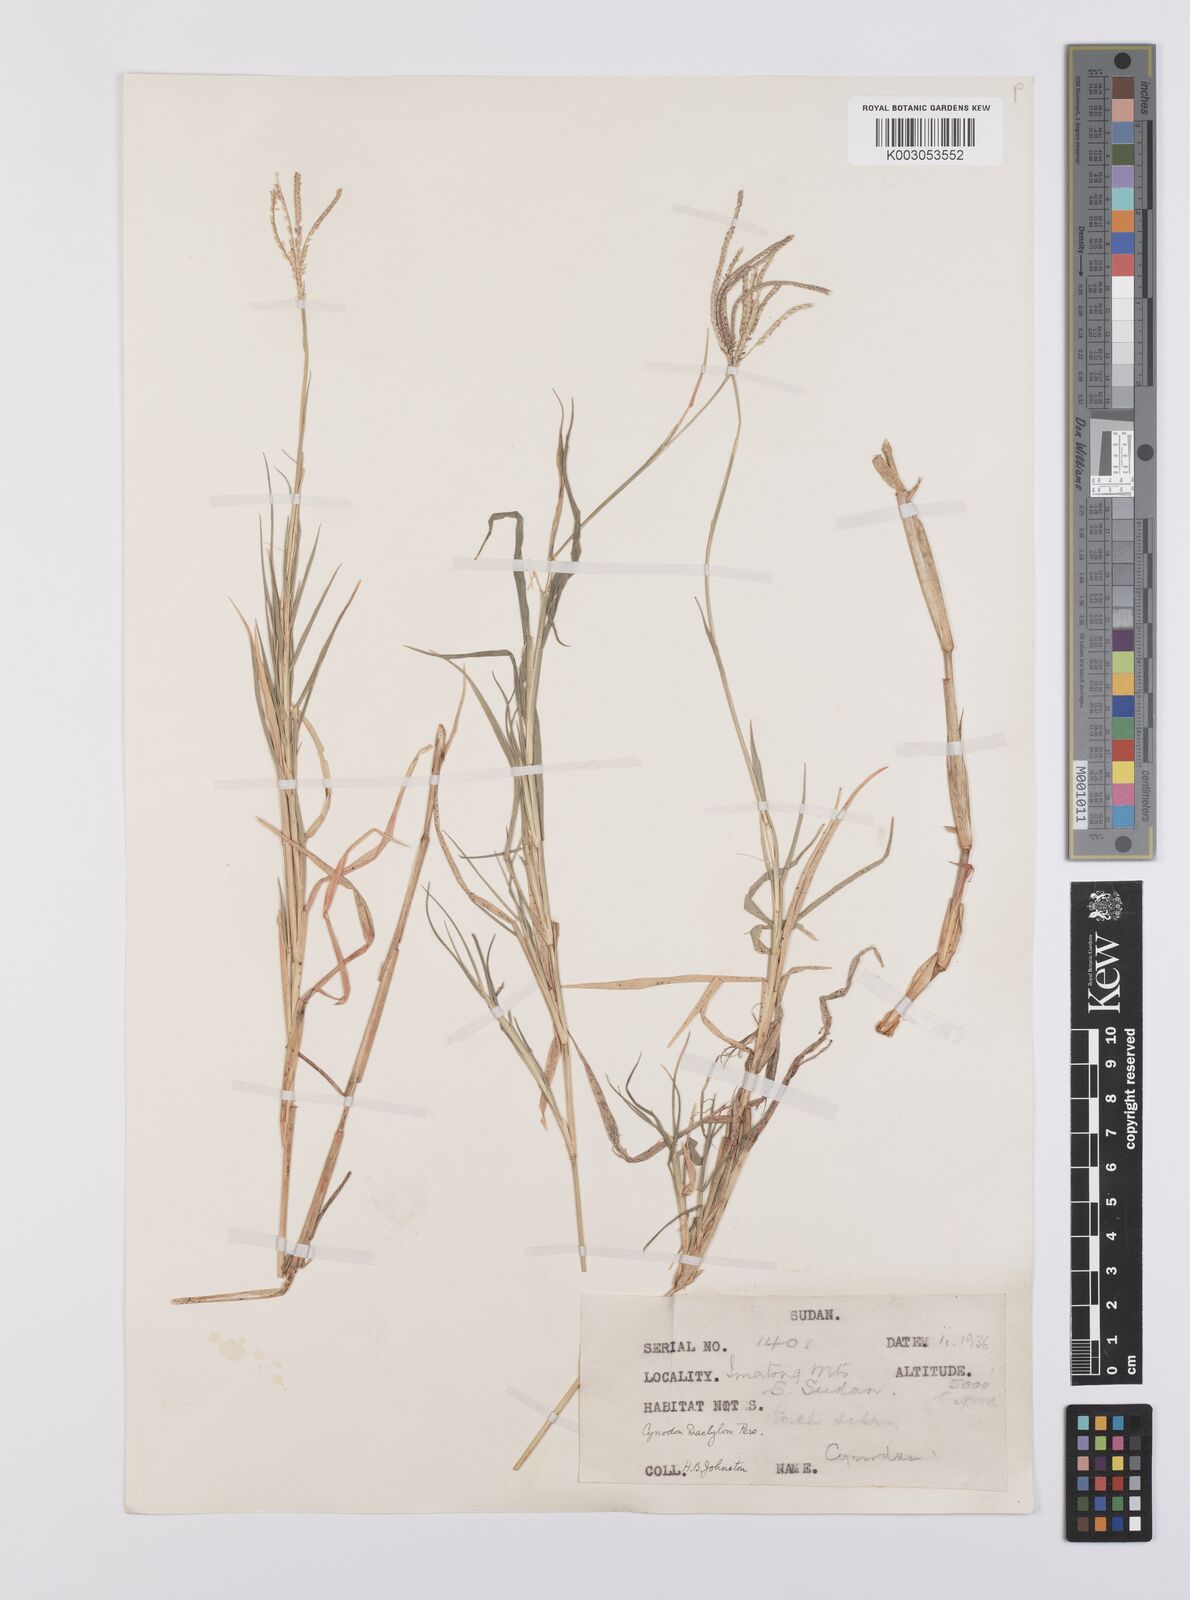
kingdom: Plantae
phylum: Tracheophyta
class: Liliopsida
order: Poales
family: Poaceae
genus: Cynodon
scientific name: Cynodon dactylon
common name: Bermuda grass
